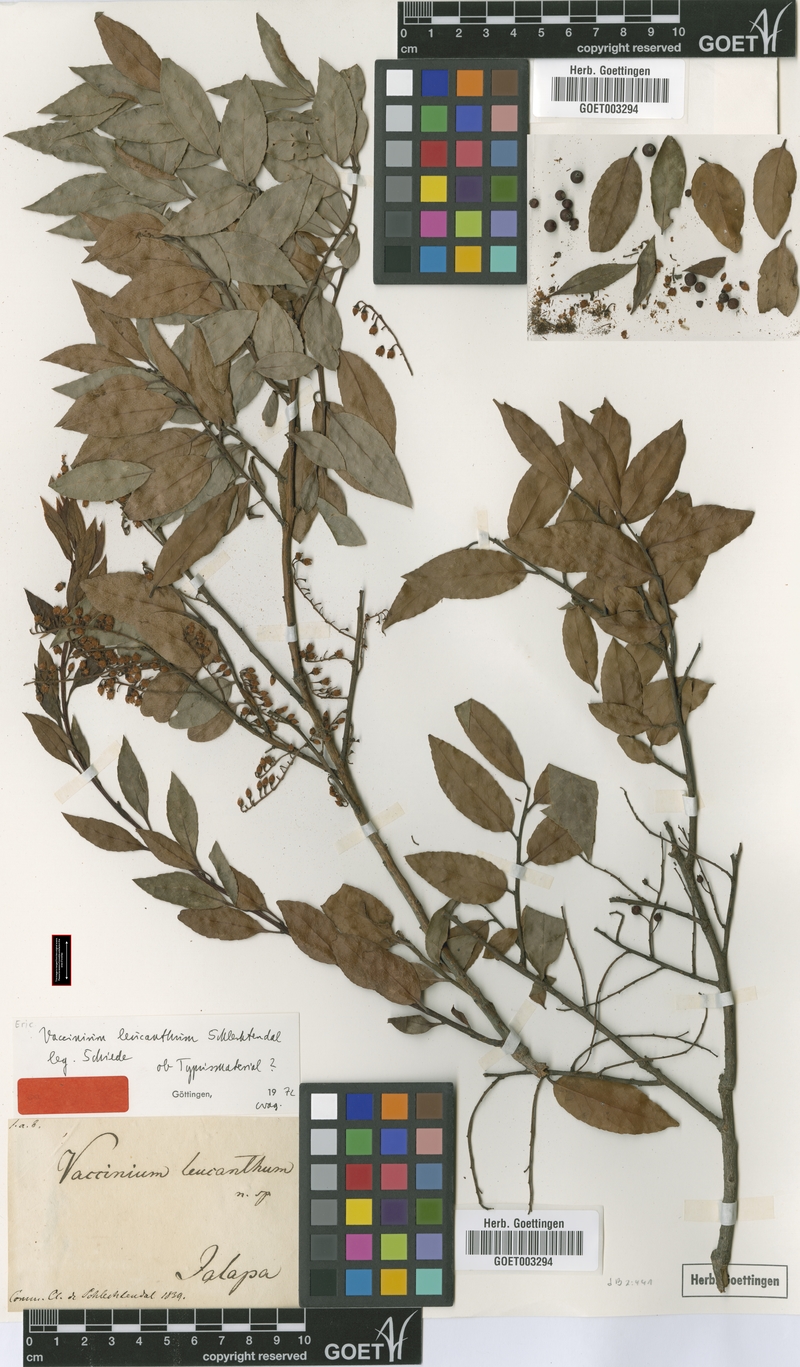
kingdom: Plantae
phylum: Tracheophyta
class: Magnoliopsida
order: Ericales
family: Ericaceae
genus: Vaccinium
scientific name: Vaccinium leucanthum
